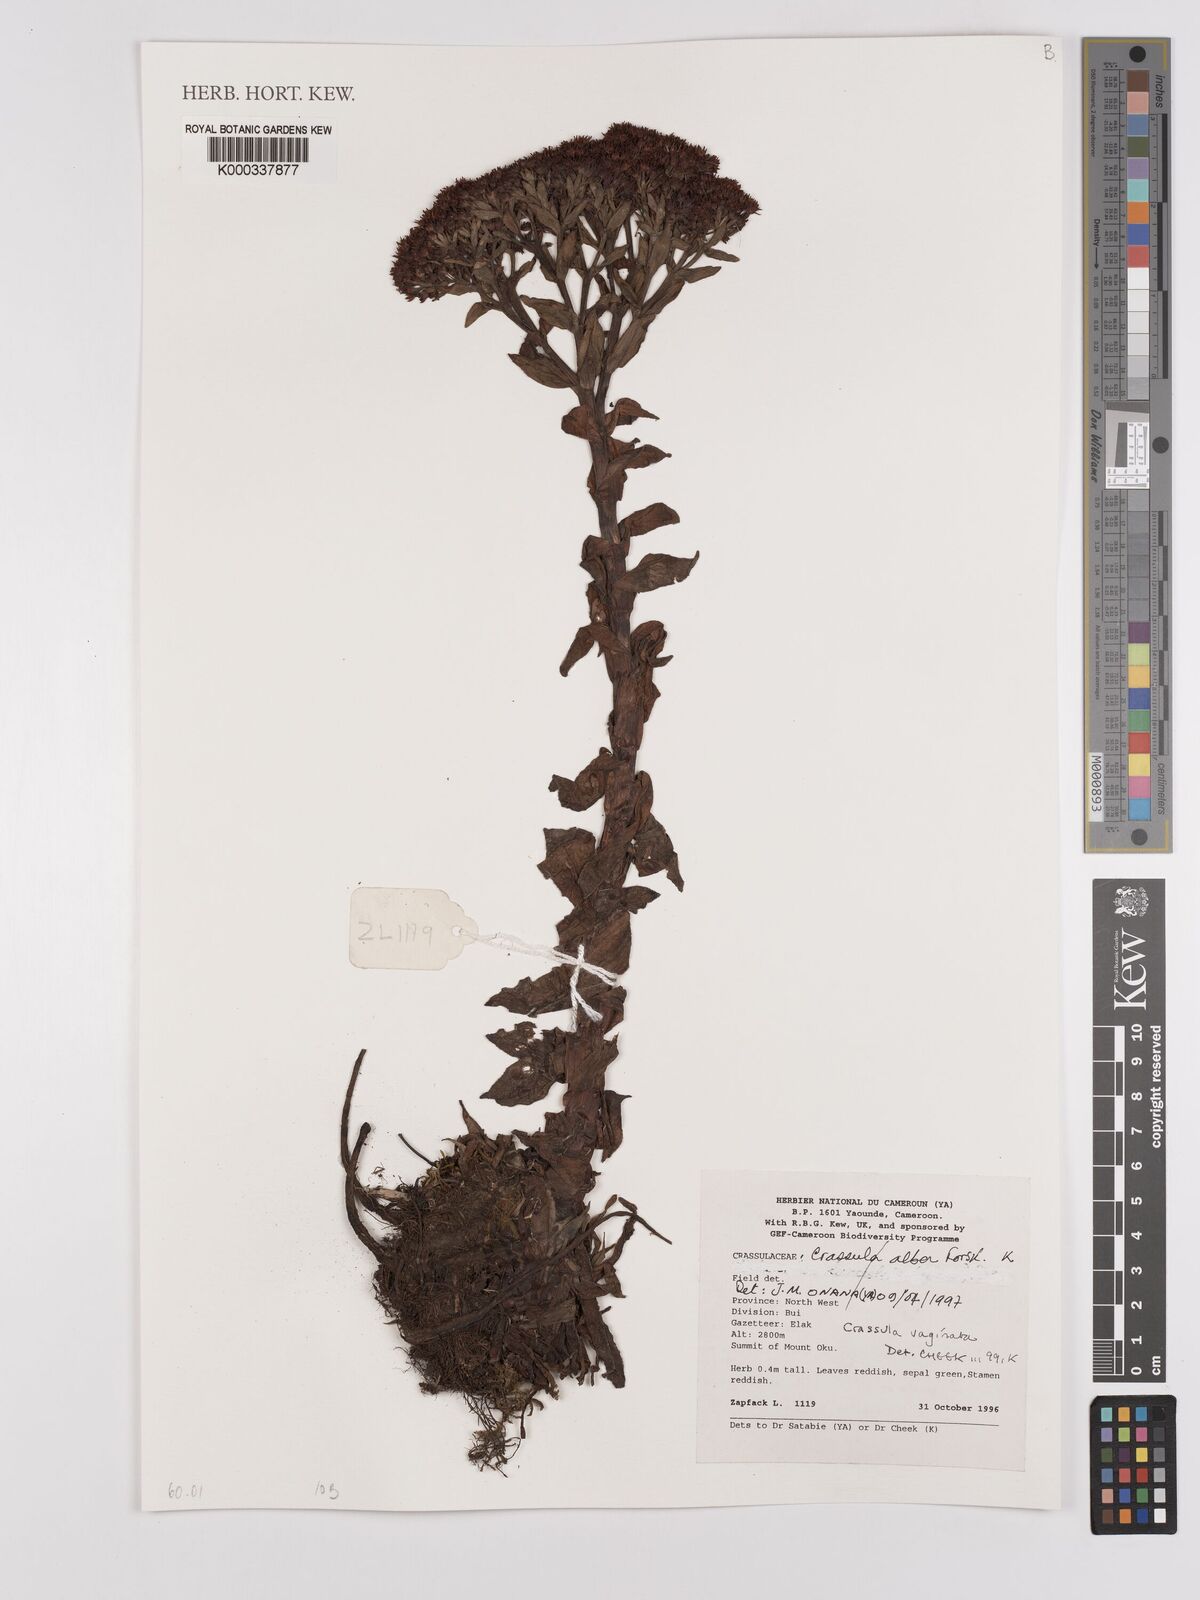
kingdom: Plantae
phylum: Tracheophyta
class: Magnoliopsida
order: Myrtales
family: Onagraceae
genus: Ludwigia
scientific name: Ludwigia nervosa
